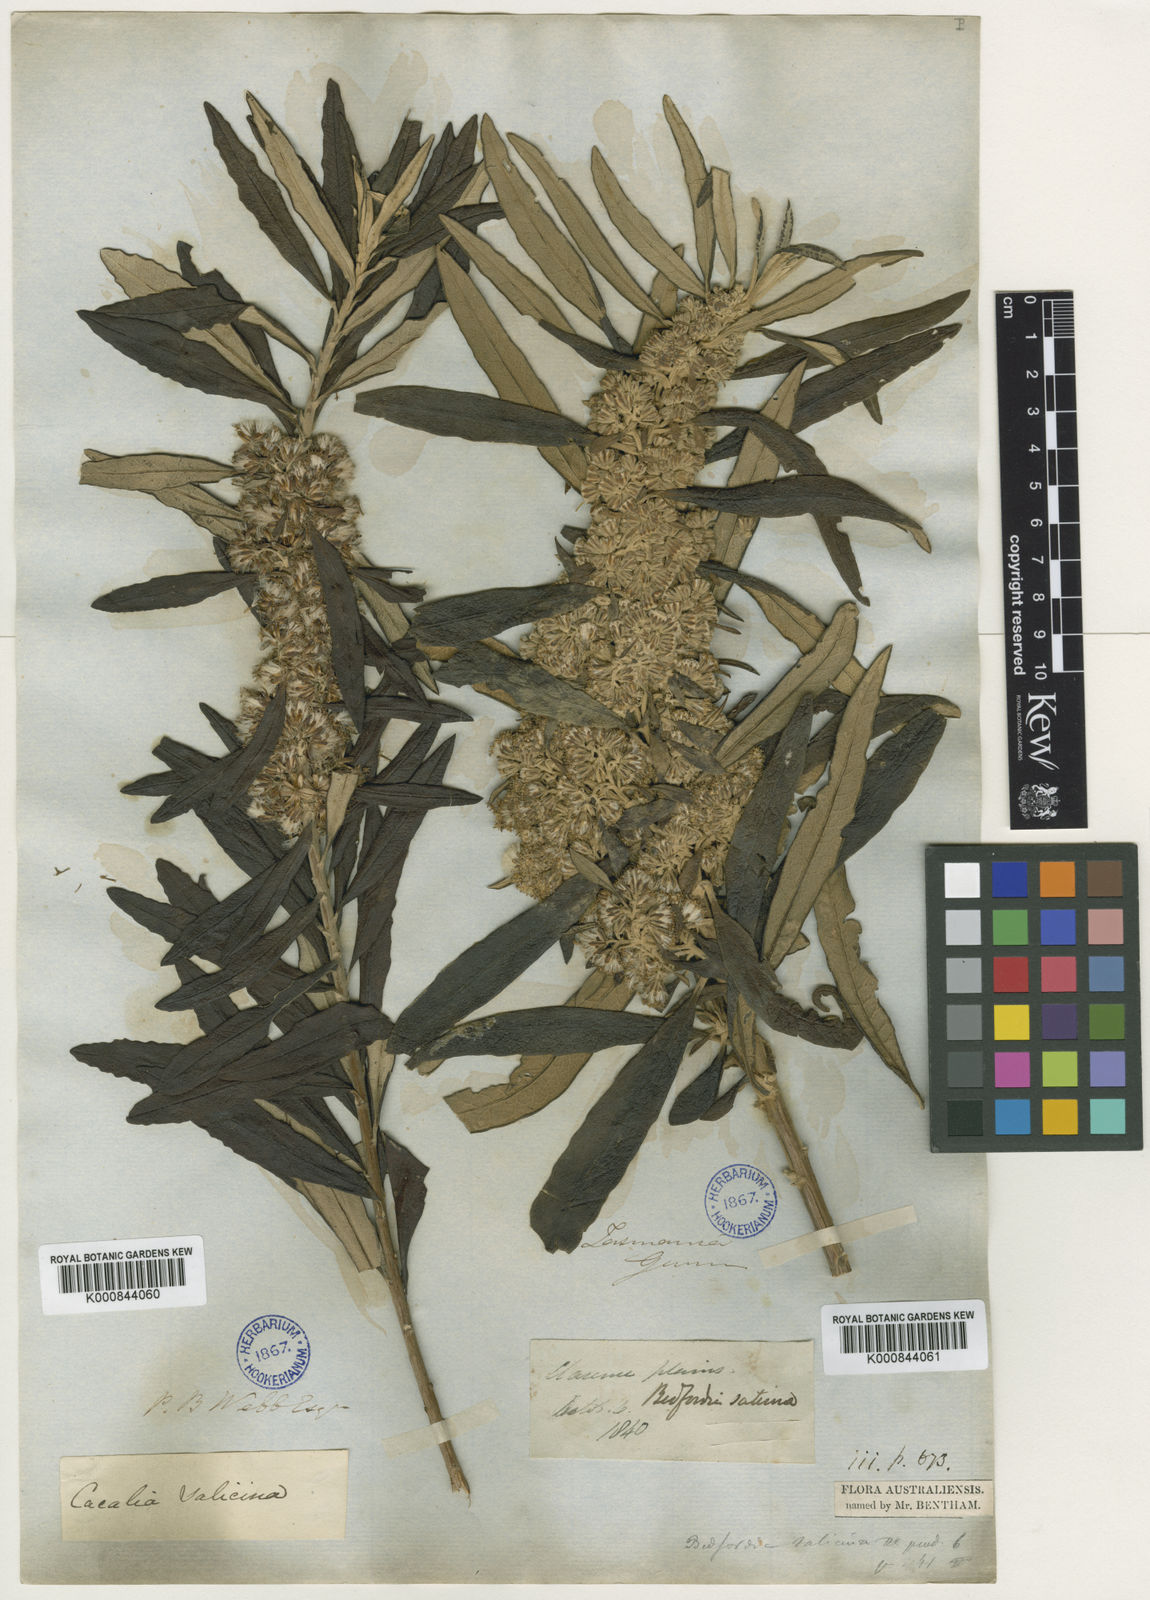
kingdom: Plantae
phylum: Tracheophyta
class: Magnoliopsida
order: Asterales
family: Asteraceae
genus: Bedfordia
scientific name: Bedfordia salicina
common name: Blanketleaf
